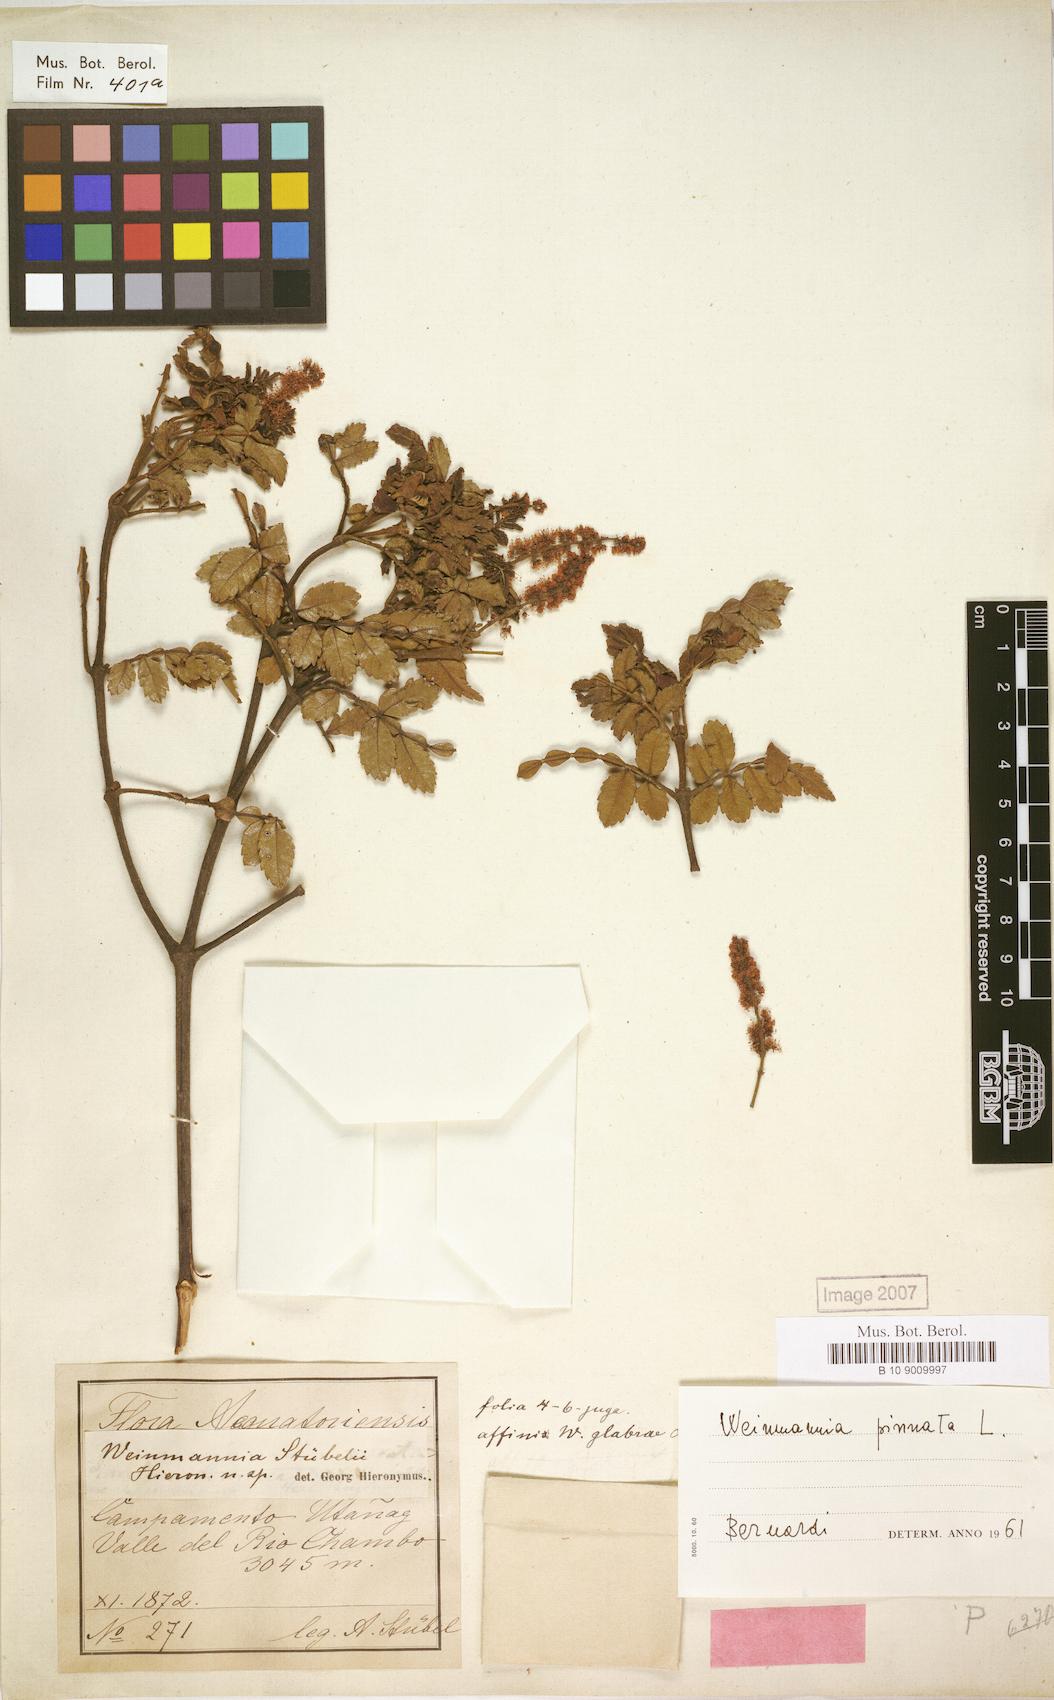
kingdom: Plantae
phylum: Tracheophyta
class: Magnoliopsida
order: Oxalidales
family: Cunoniaceae
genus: Weinmannia
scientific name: Weinmannia pinnata
